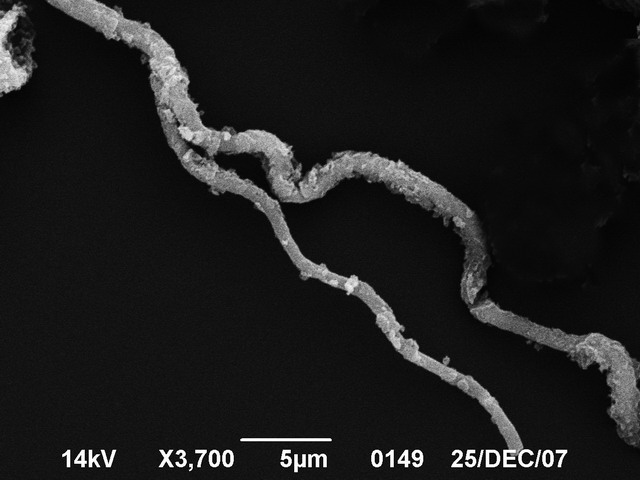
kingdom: Protozoa
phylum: Mycetozoa
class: Myxomycetes
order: Physarales
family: Didymiaceae
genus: Diderma
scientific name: Diderma ochraceum
